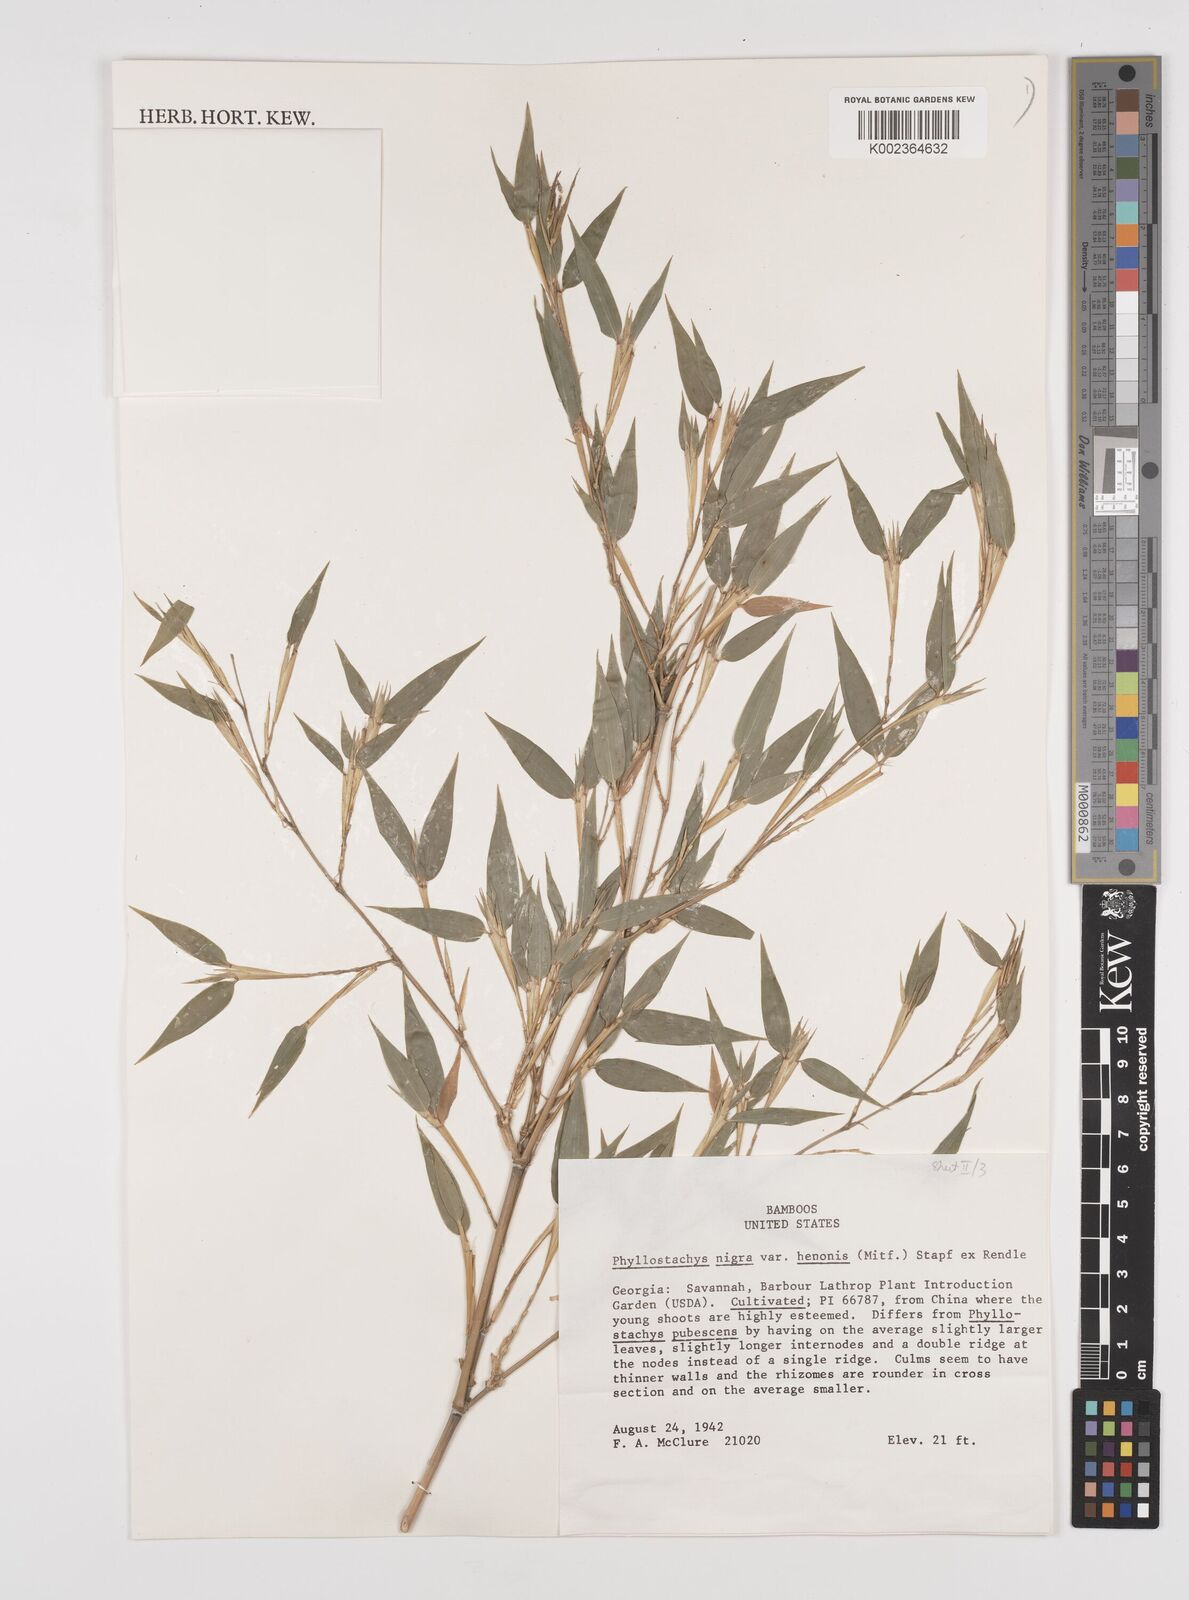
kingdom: Plantae
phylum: Tracheophyta
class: Liliopsida
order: Poales
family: Poaceae
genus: Phyllostachys
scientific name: Phyllostachys nigra
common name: Black bamboo
